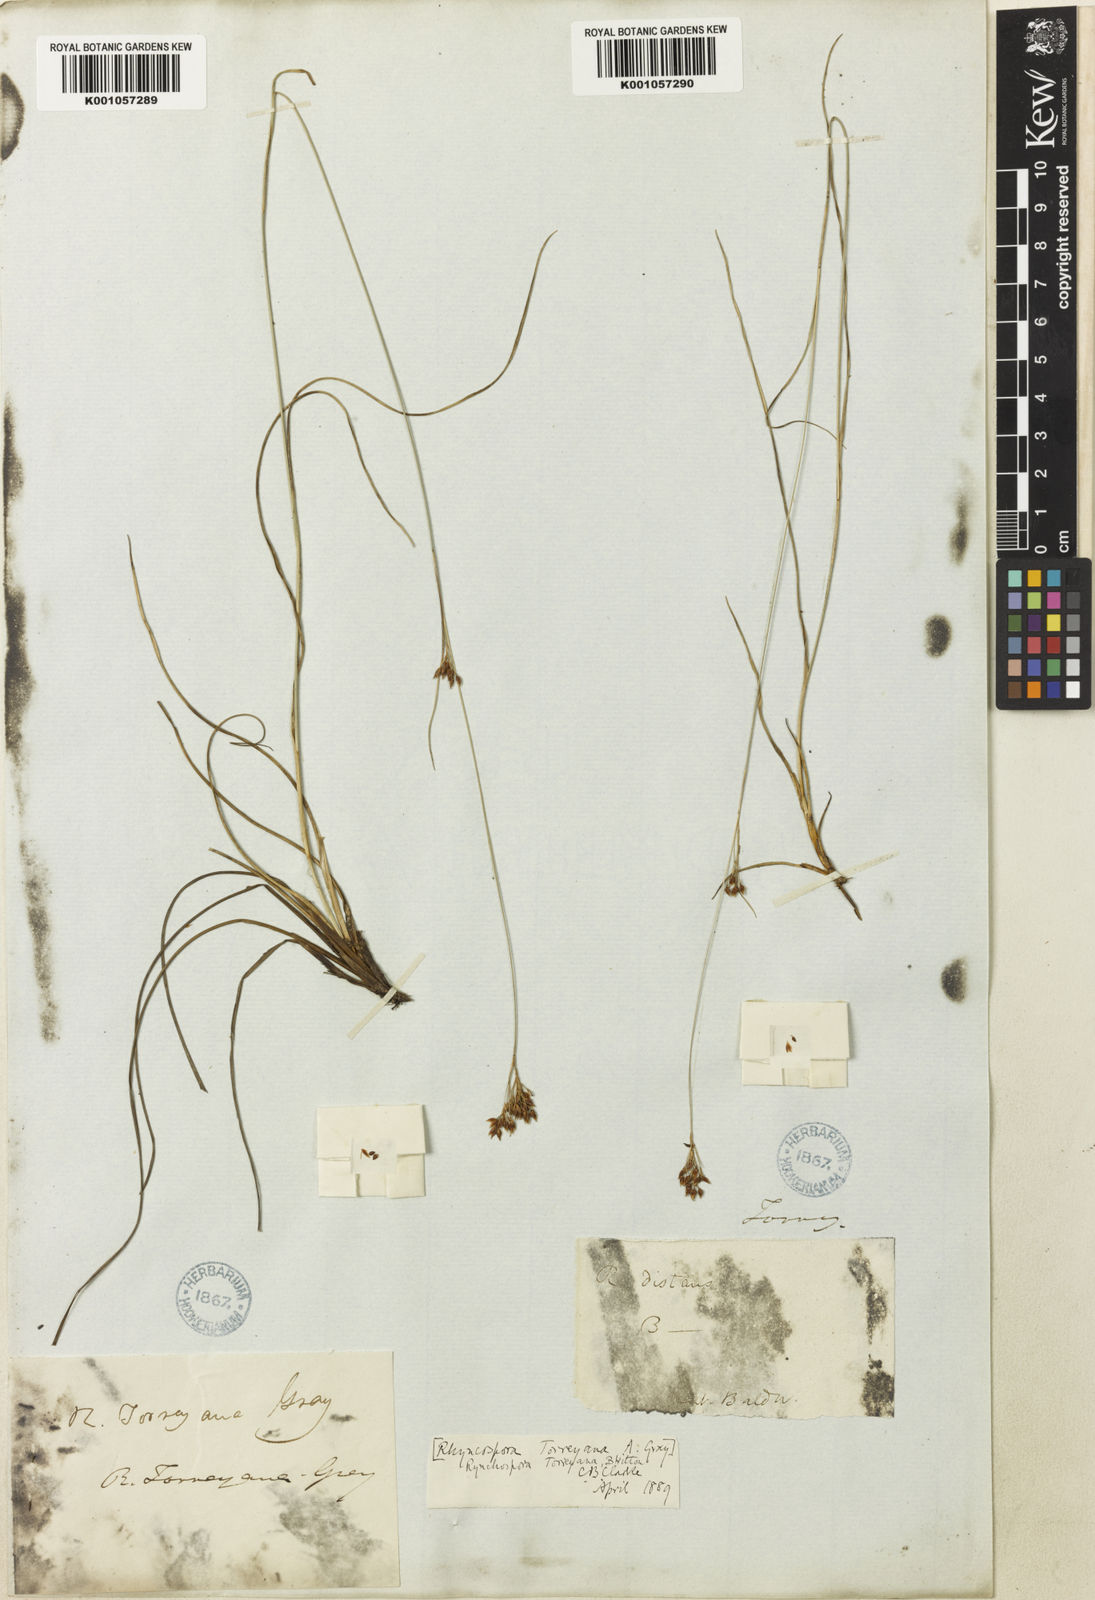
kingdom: Plantae
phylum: Tracheophyta
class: Liliopsida
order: Poales
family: Cyperaceae
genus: Rhynchospora
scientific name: Rhynchospora torreyana
